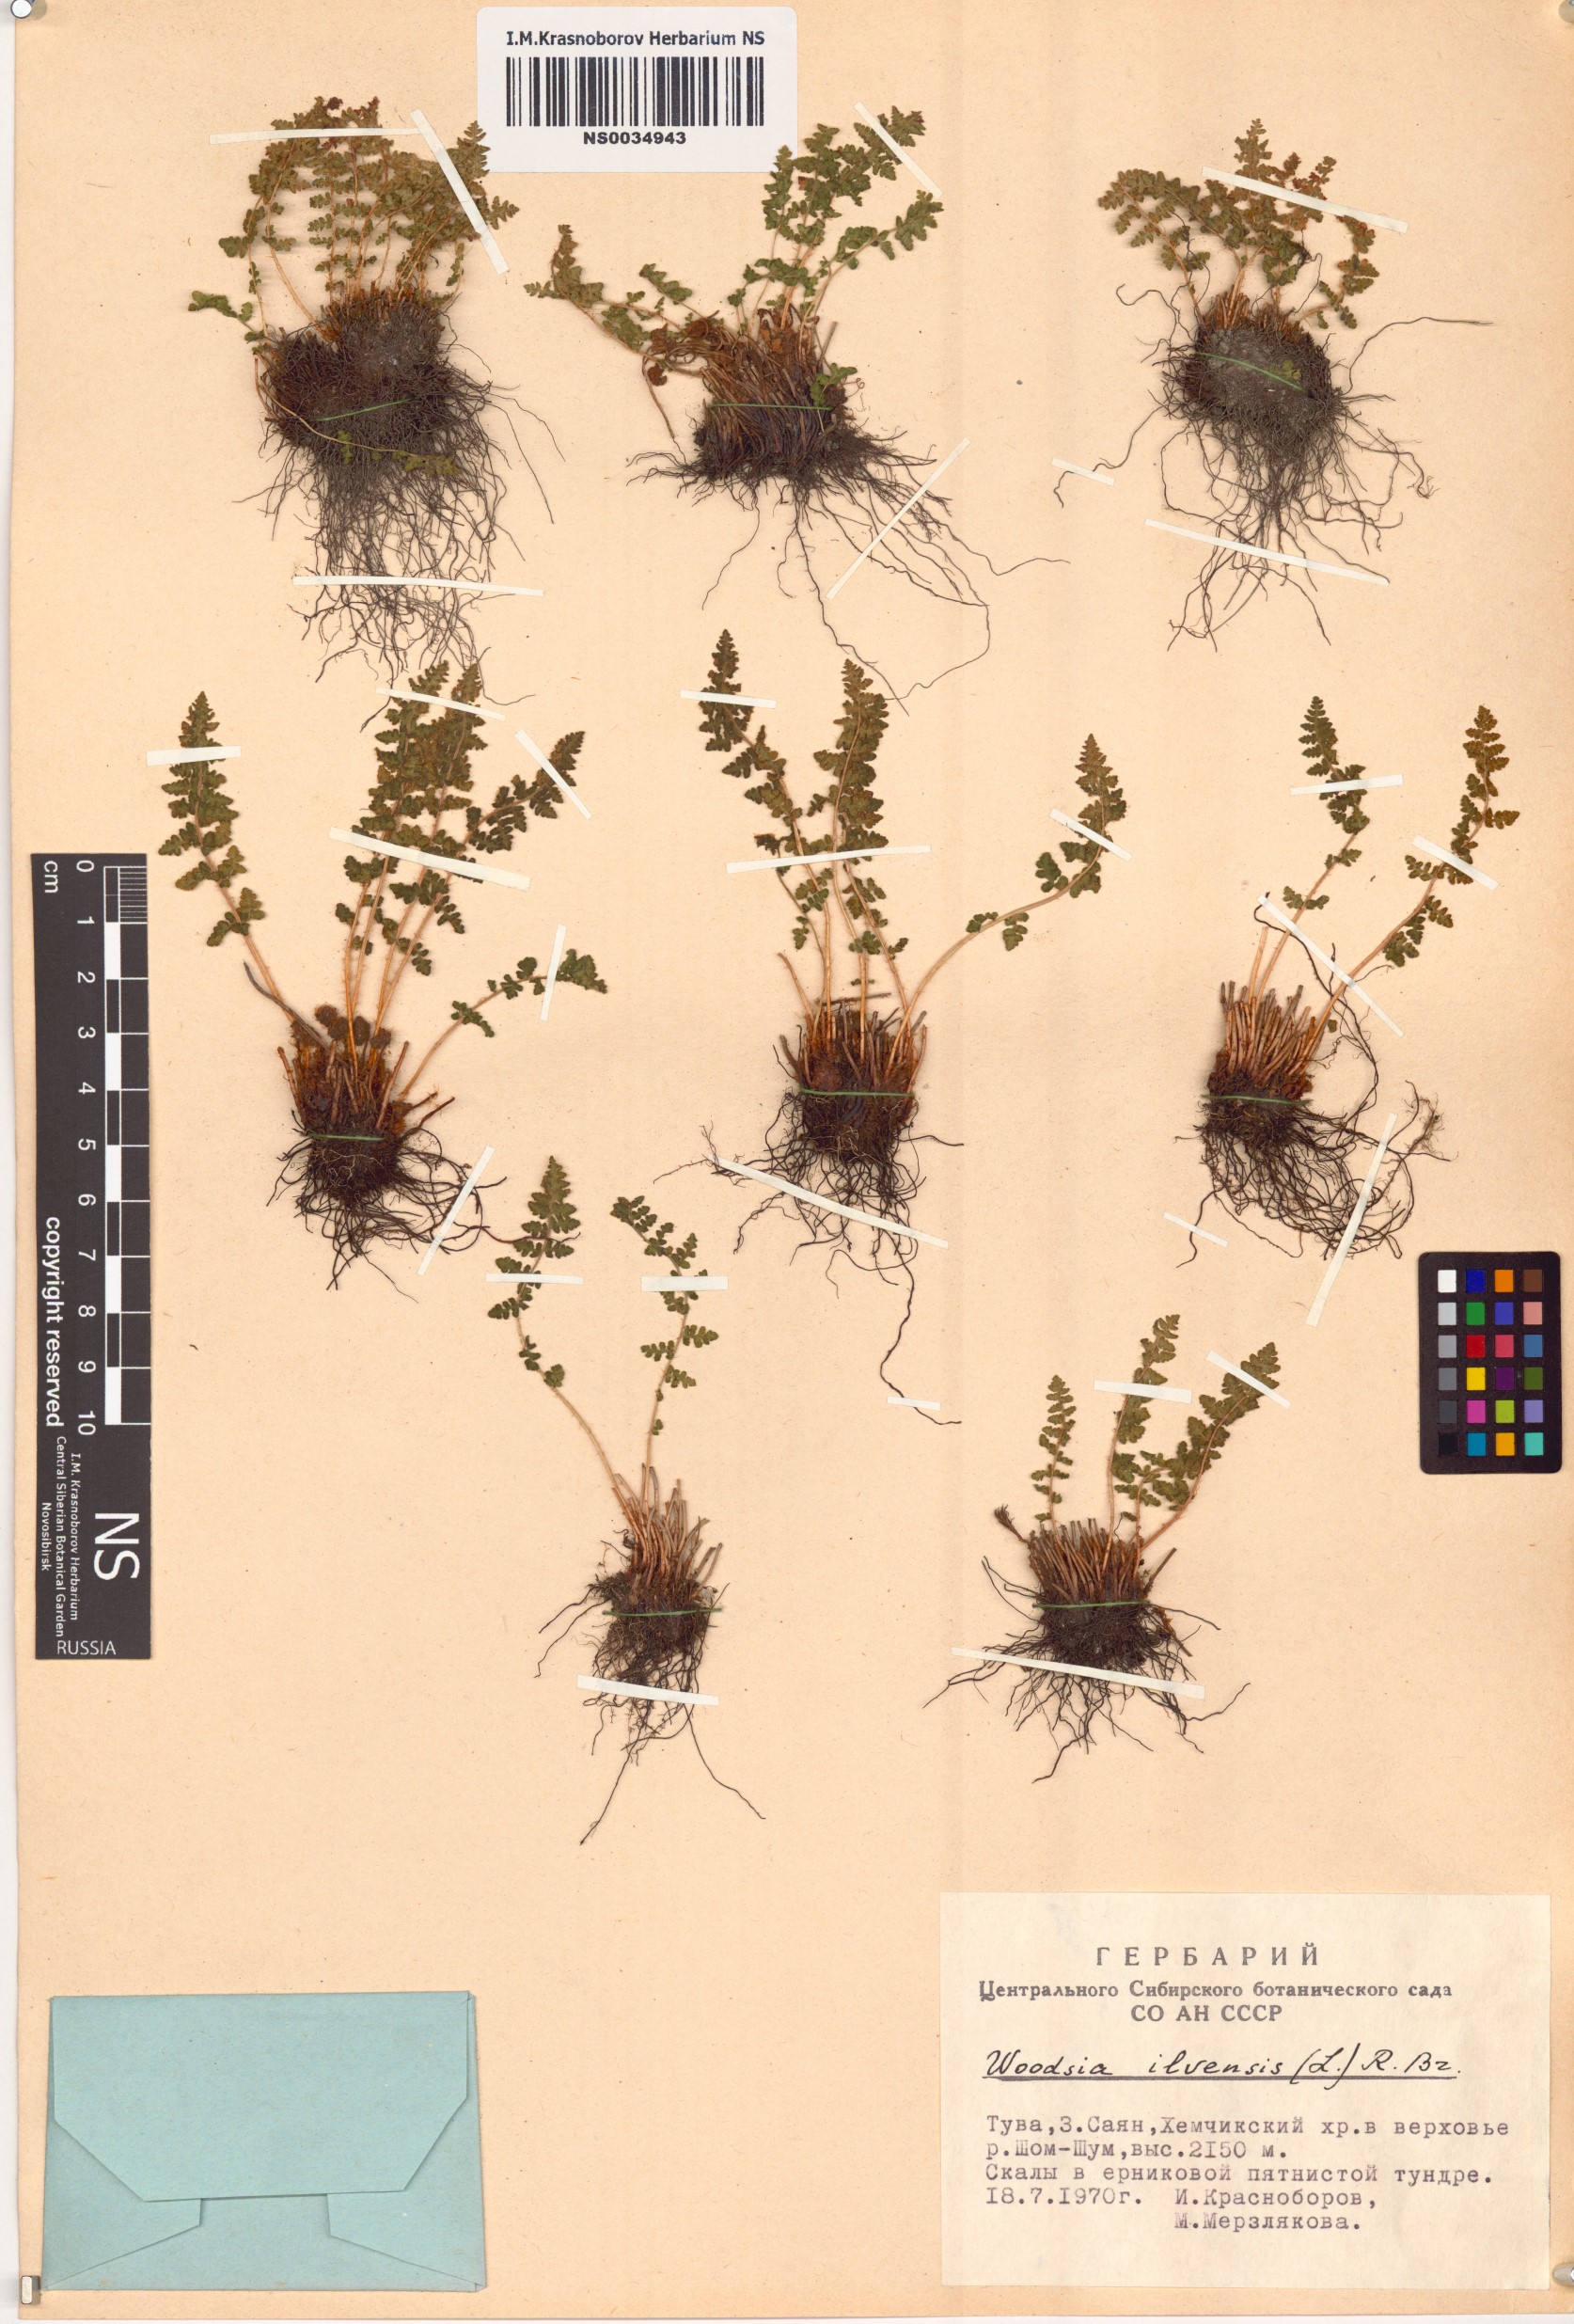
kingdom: Plantae
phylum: Tracheophyta
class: Polypodiopsida
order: Polypodiales
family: Woodsiaceae
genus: Woodsia
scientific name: Woodsia ilvensis
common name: Fragrant woodsia
